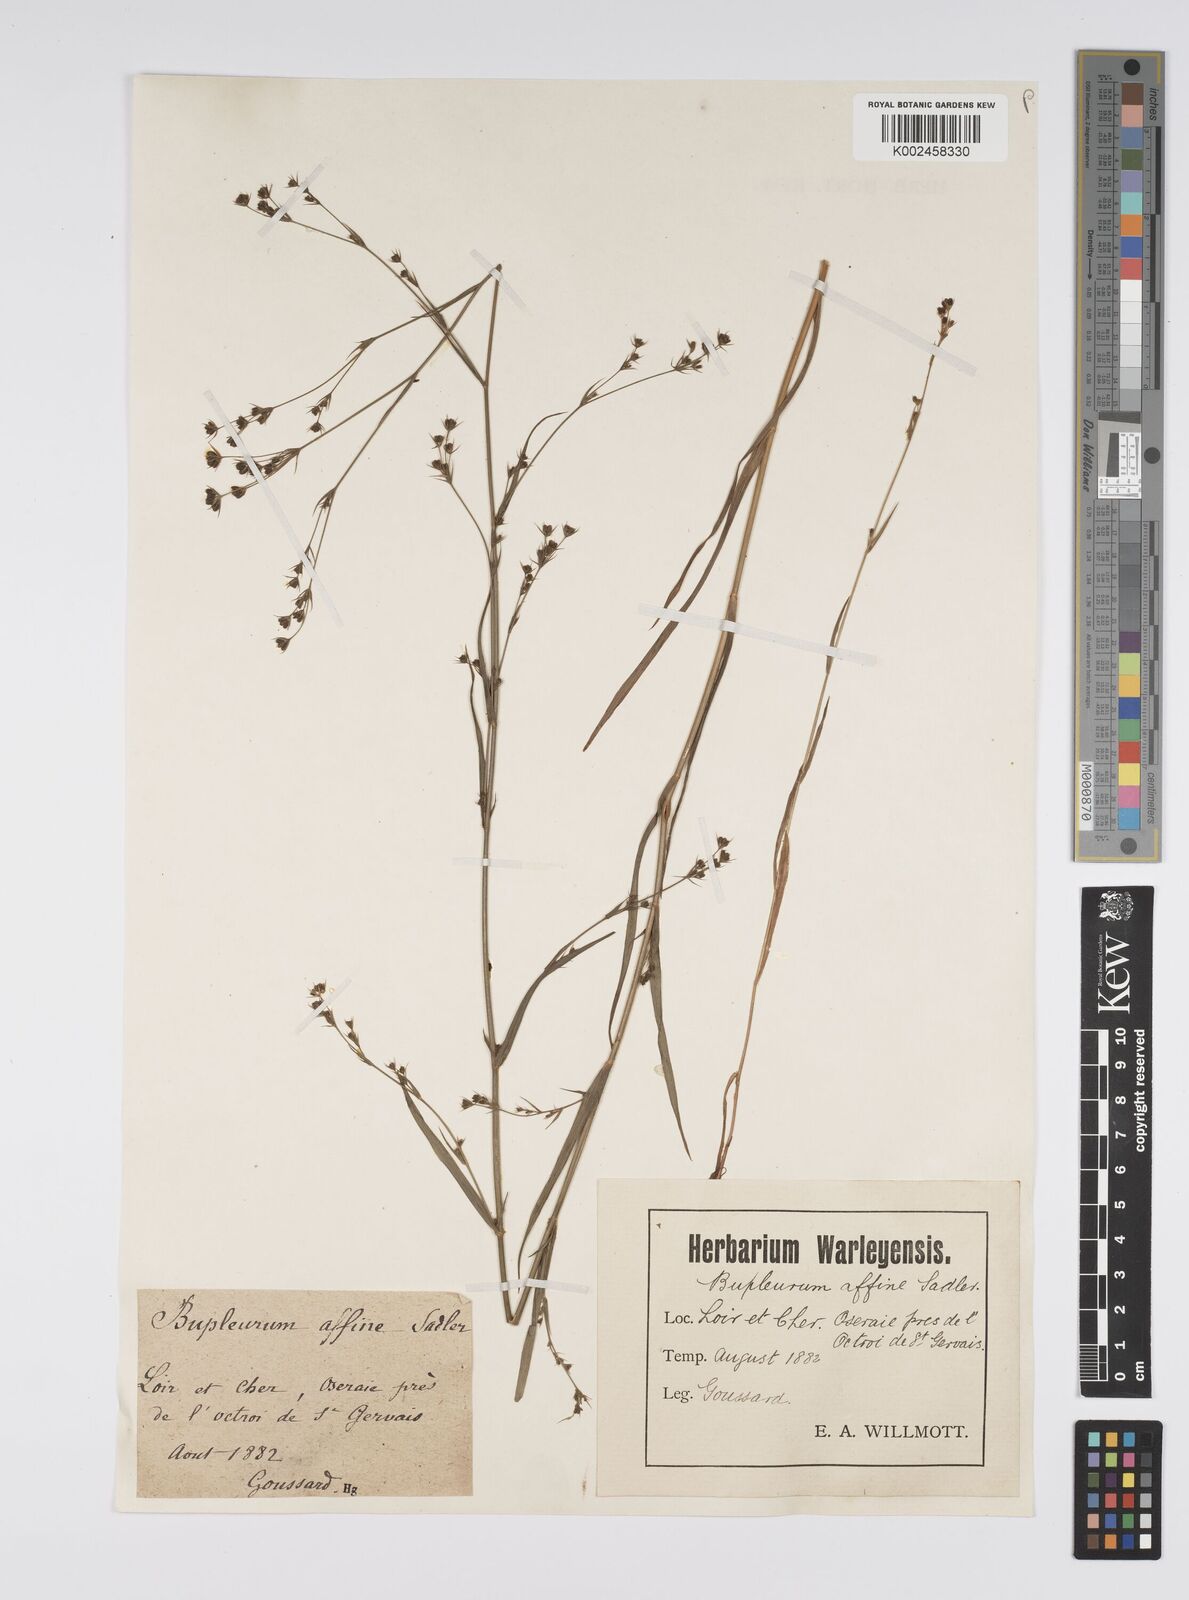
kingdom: Plantae
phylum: Tracheophyta
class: Magnoliopsida
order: Apiales
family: Apiaceae
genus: Bupleurum
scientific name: Bupleurum gerardi
